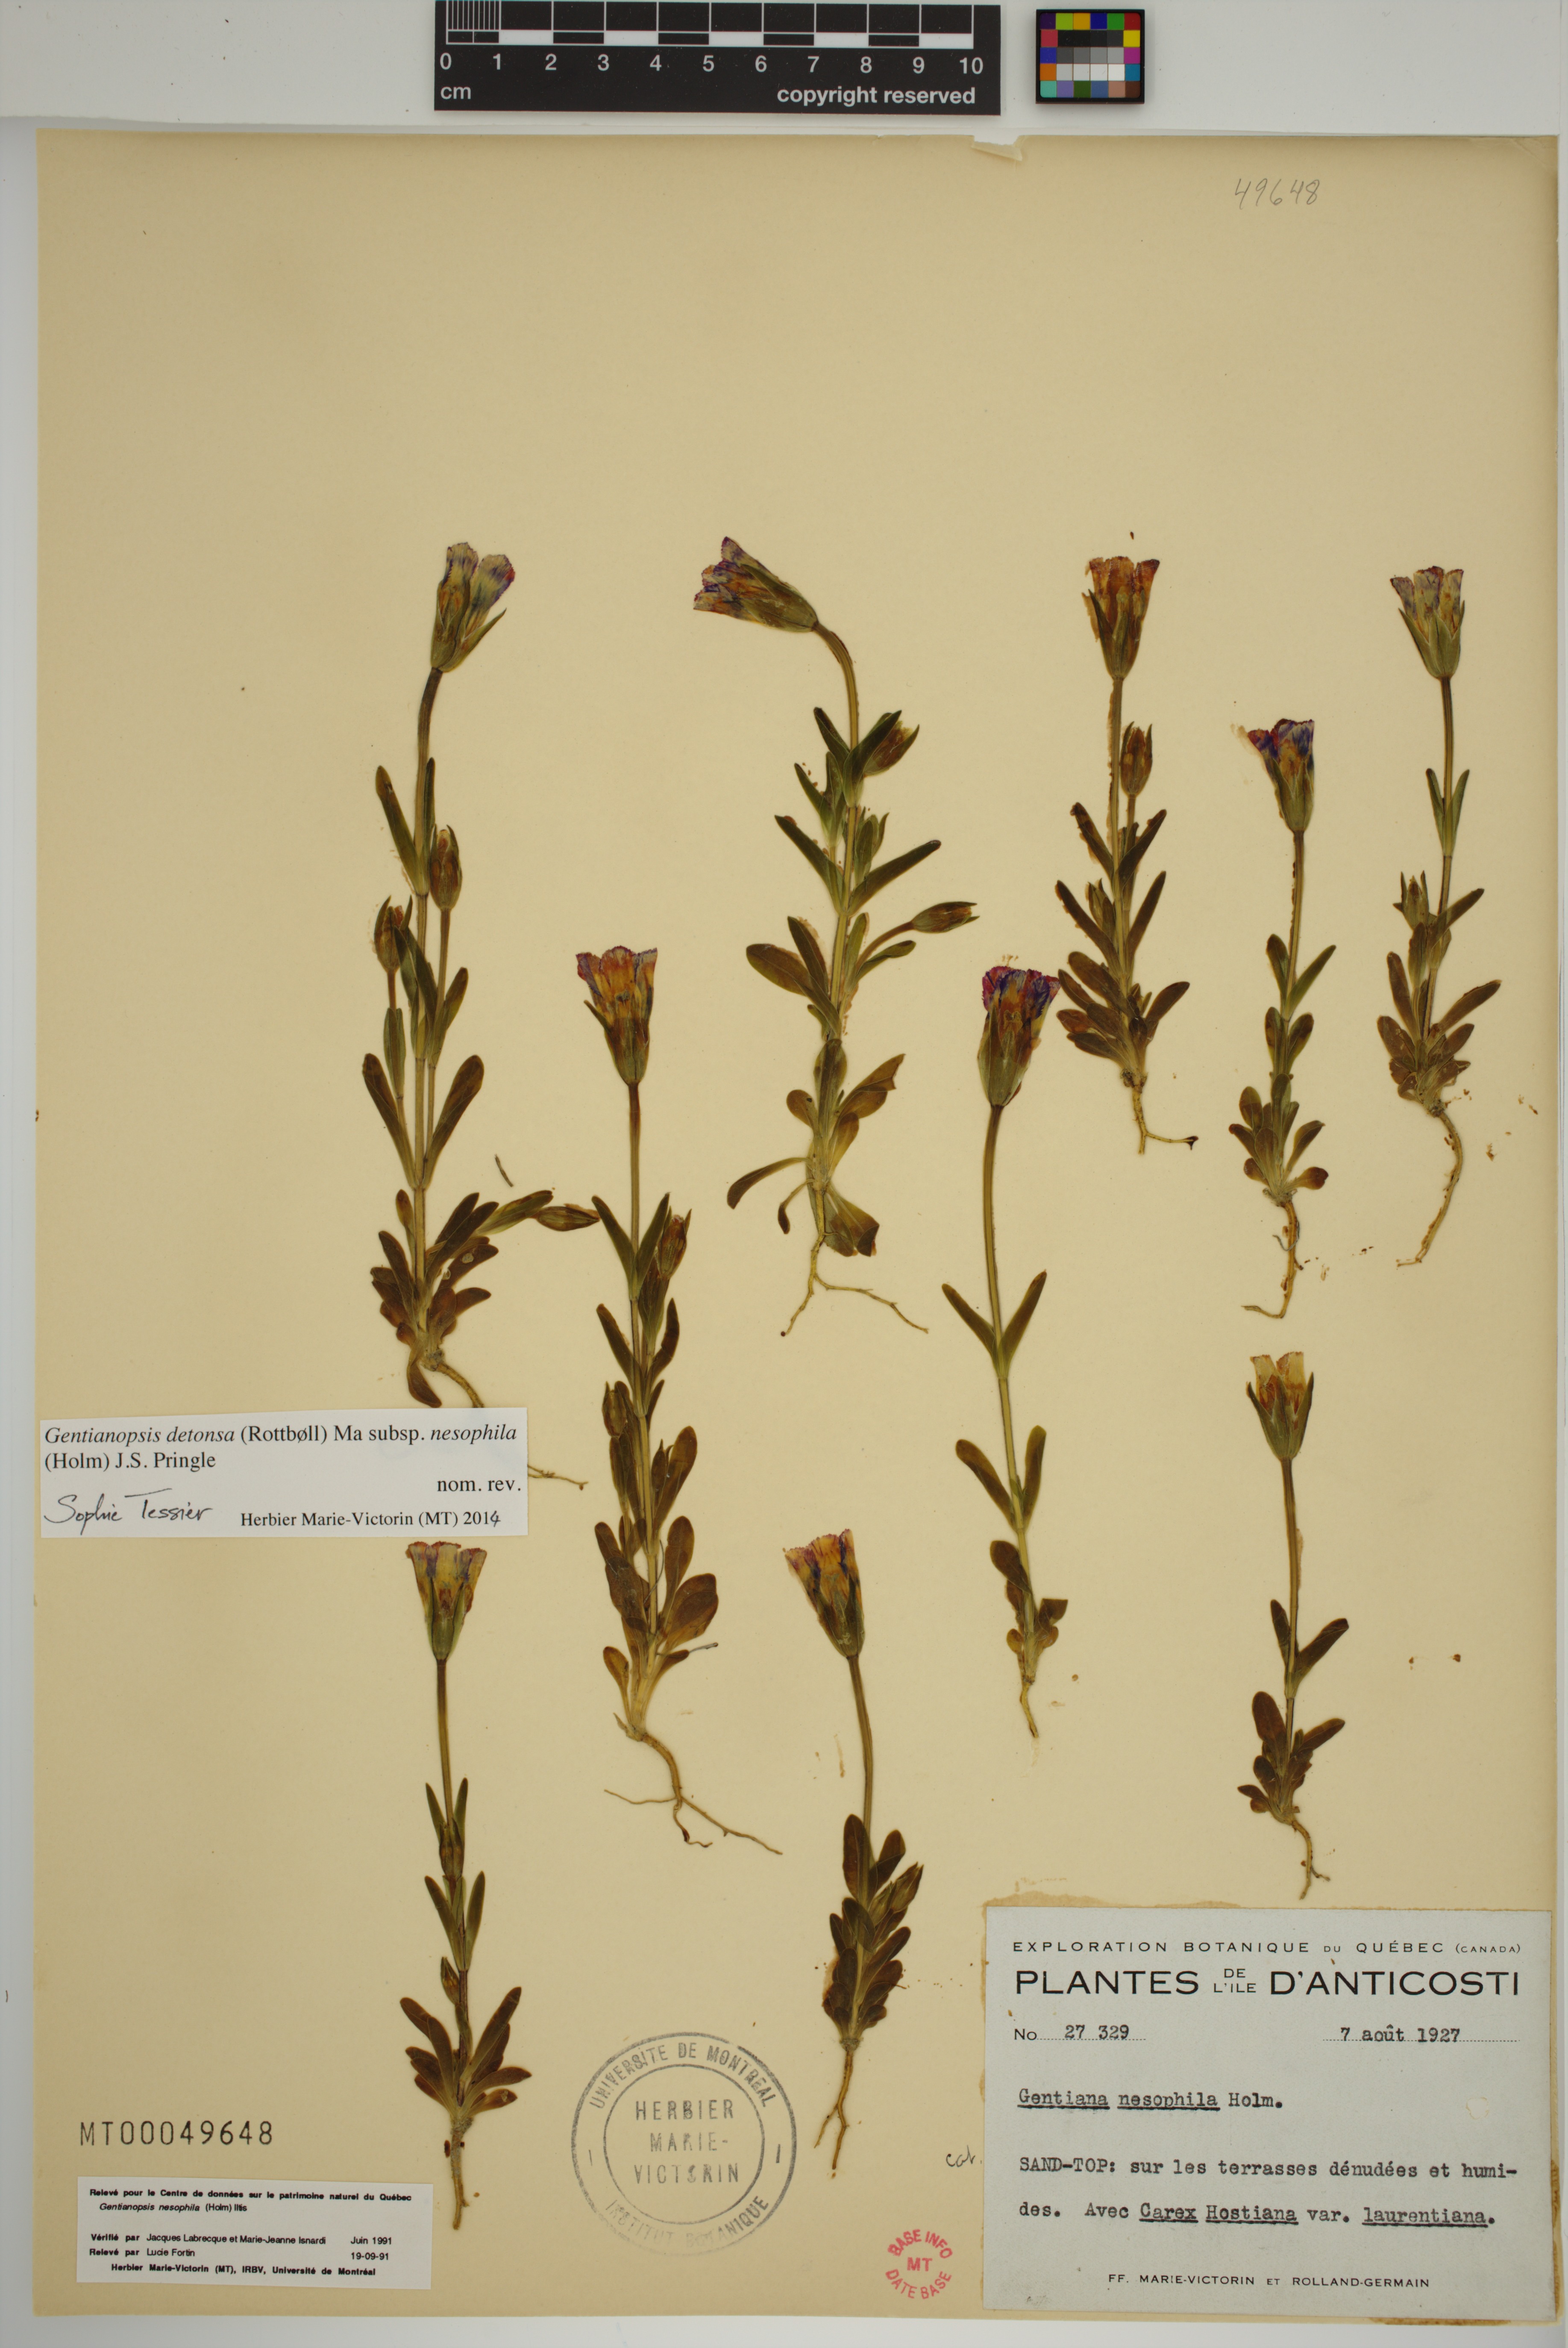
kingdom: Plantae
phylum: Tracheophyta
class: Magnoliopsida
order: Gentianales
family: Gentianaceae
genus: Gentianopsis
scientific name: Gentianopsis nesophila
